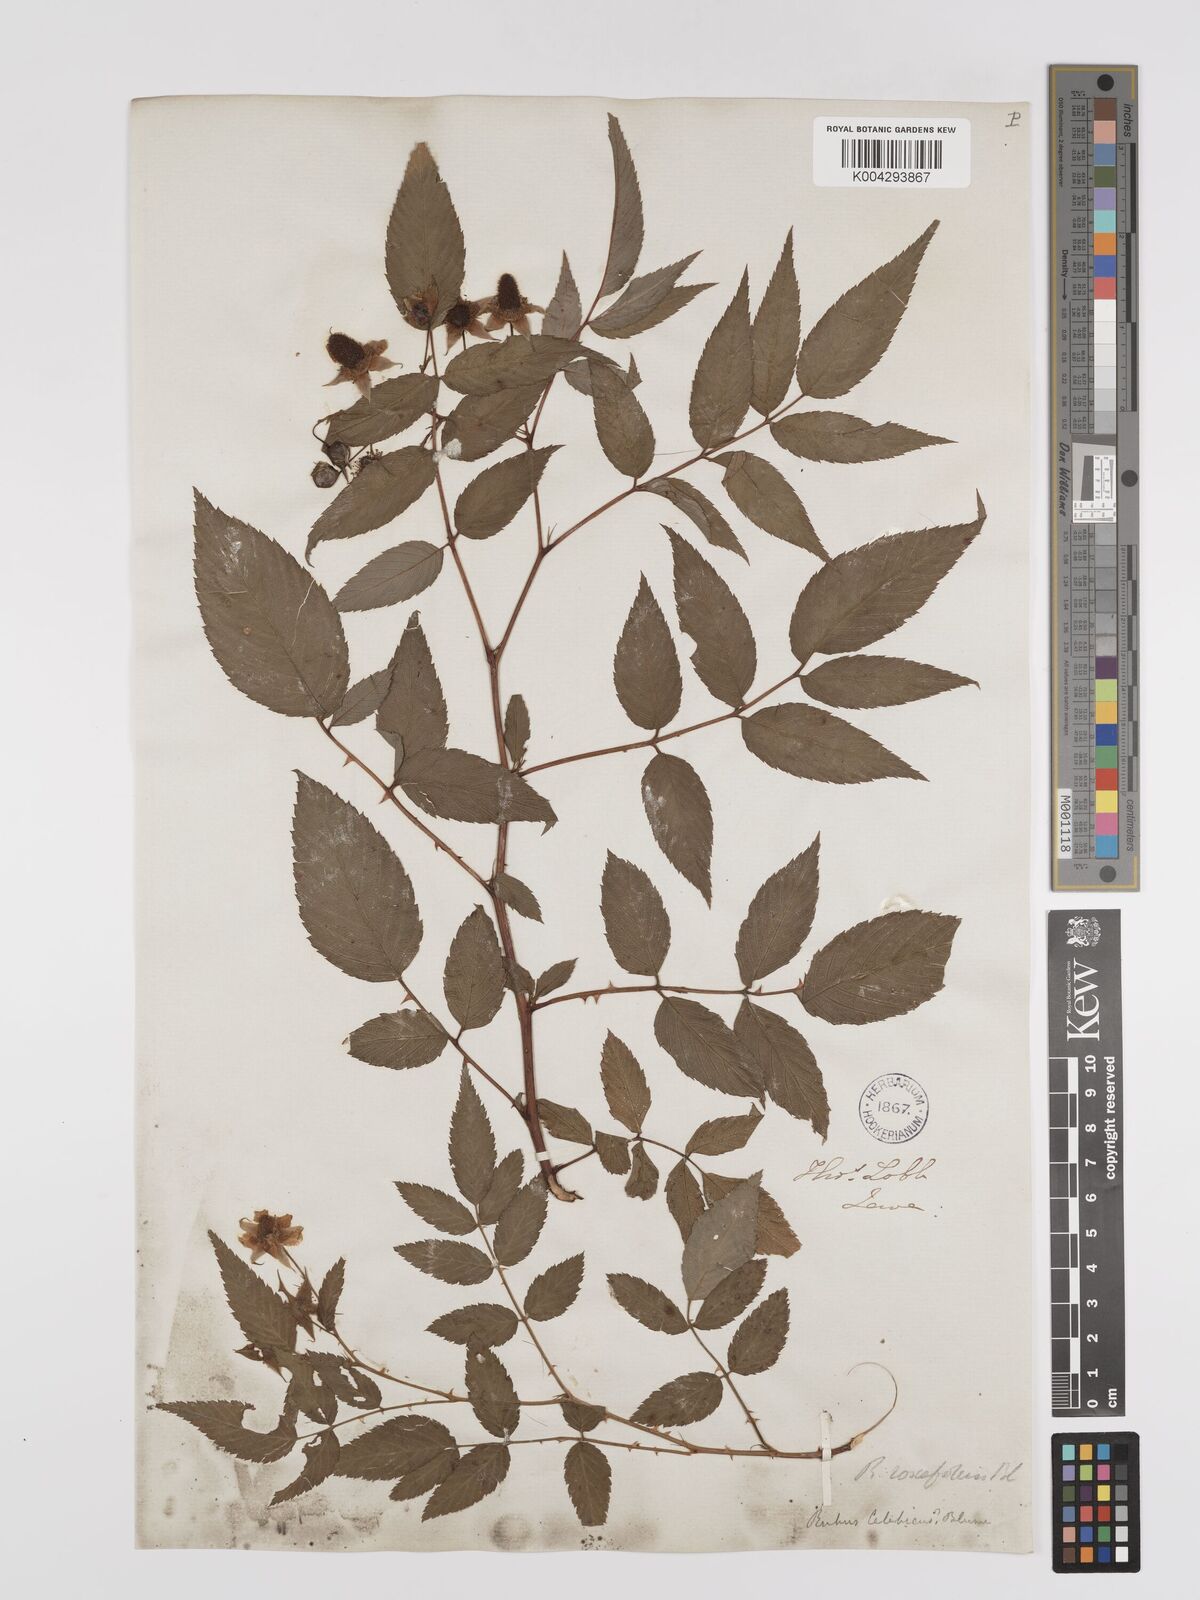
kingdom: Plantae
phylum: Tracheophyta
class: Magnoliopsida
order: Rosales
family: Rosaceae
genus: Rubus
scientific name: Rubus fraxinifolius
